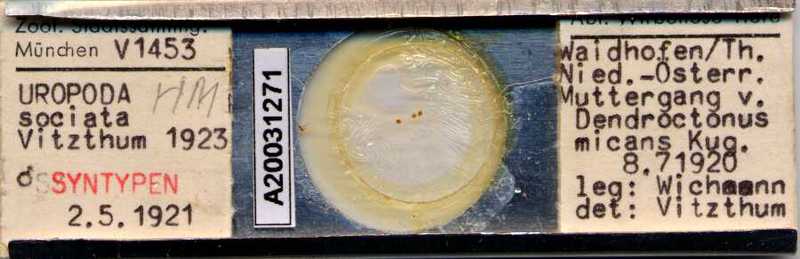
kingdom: Animalia
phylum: Arthropoda
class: Arachnida
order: Mesostigmata
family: Trematuridae
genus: Trichouropoda
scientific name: Trichouropoda sociata
